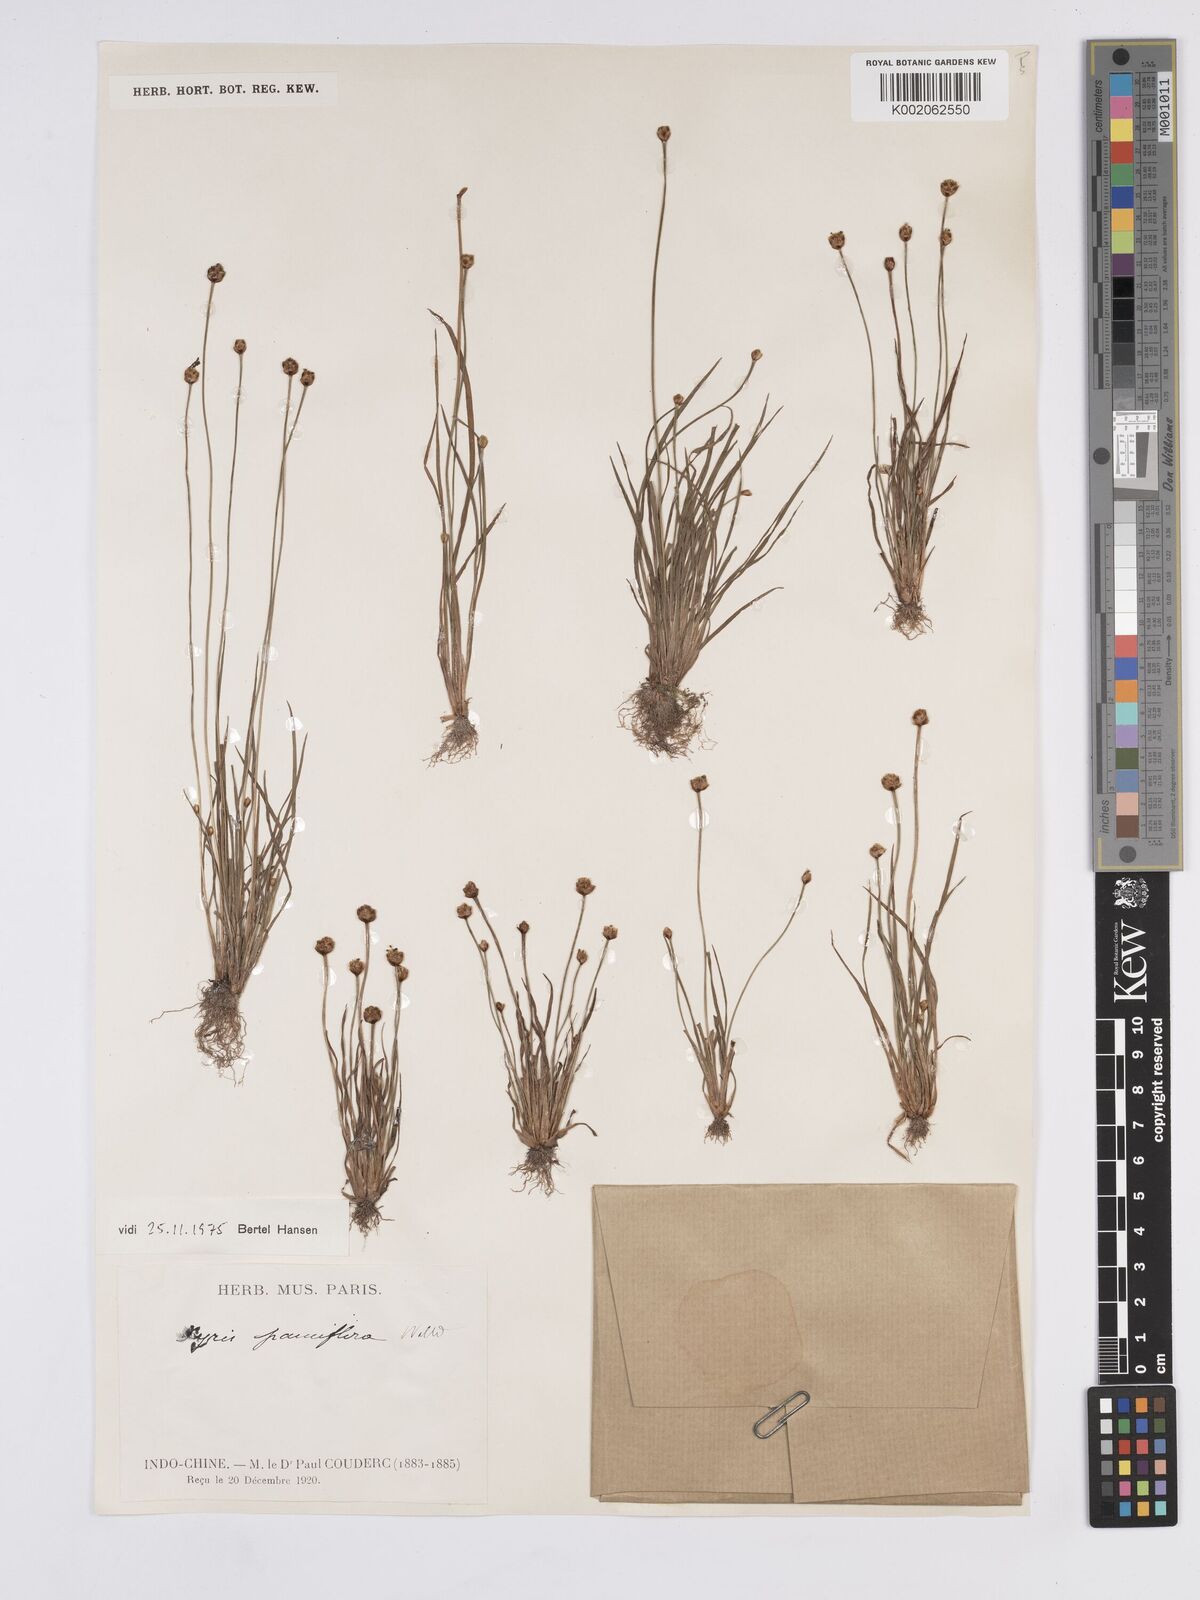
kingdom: Plantae
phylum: Tracheophyta
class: Liliopsida
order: Poales
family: Xyridaceae
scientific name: Xyridaceae
